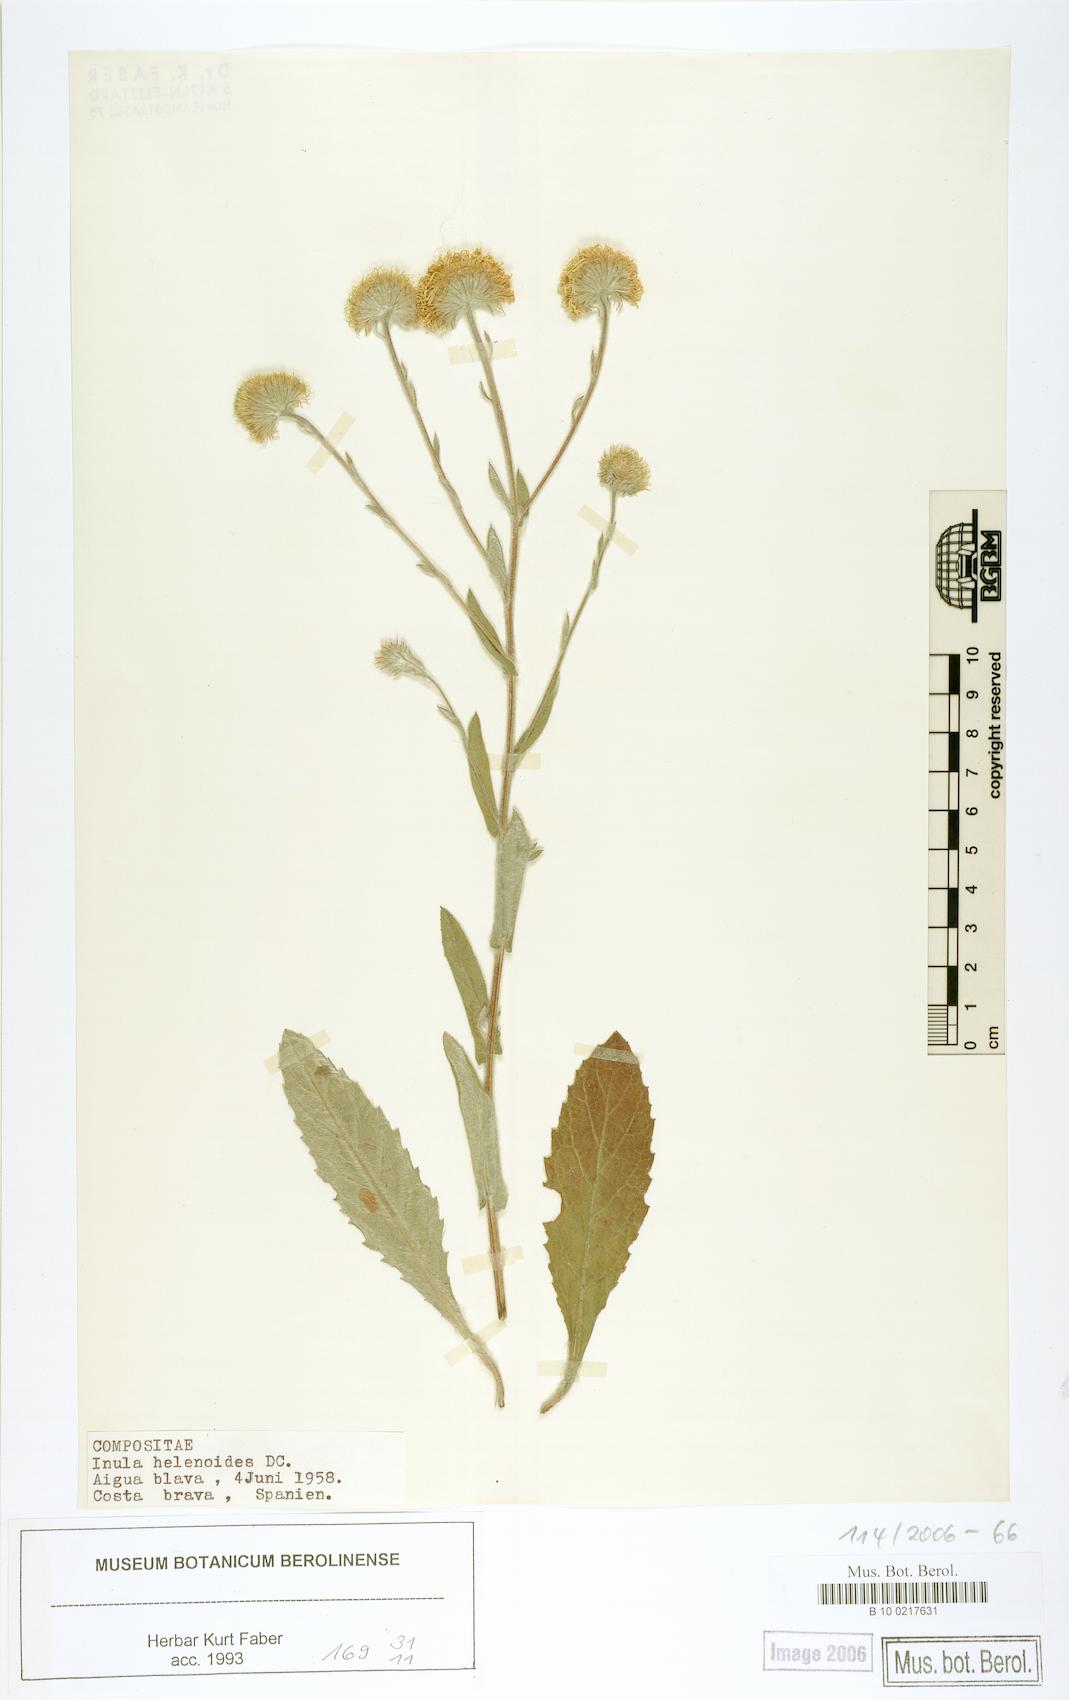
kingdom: Plantae
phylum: Tracheophyta
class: Magnoliopsida
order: Asterales
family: Asteraceae
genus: Pulicaria
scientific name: Pulicaria
